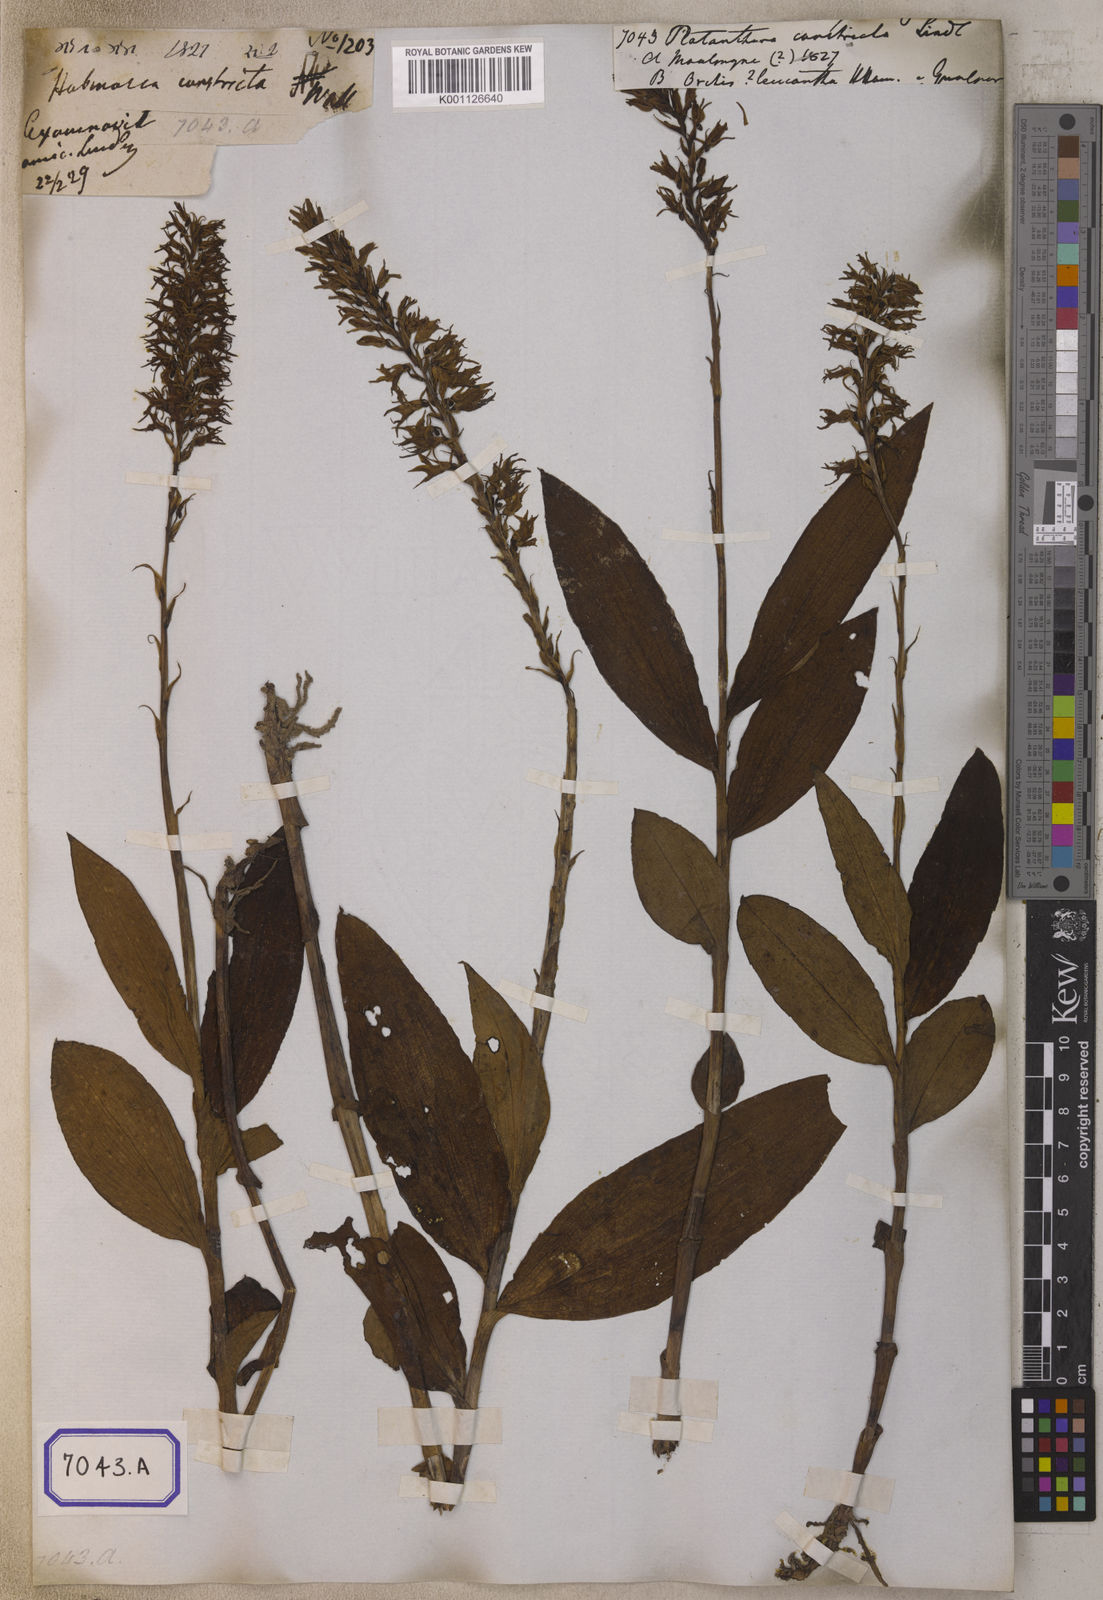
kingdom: Plantae
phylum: Tracheophyta
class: Liliopsida
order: Asparagales
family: Orchidaceae
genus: Platanthera
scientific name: Platanthera
